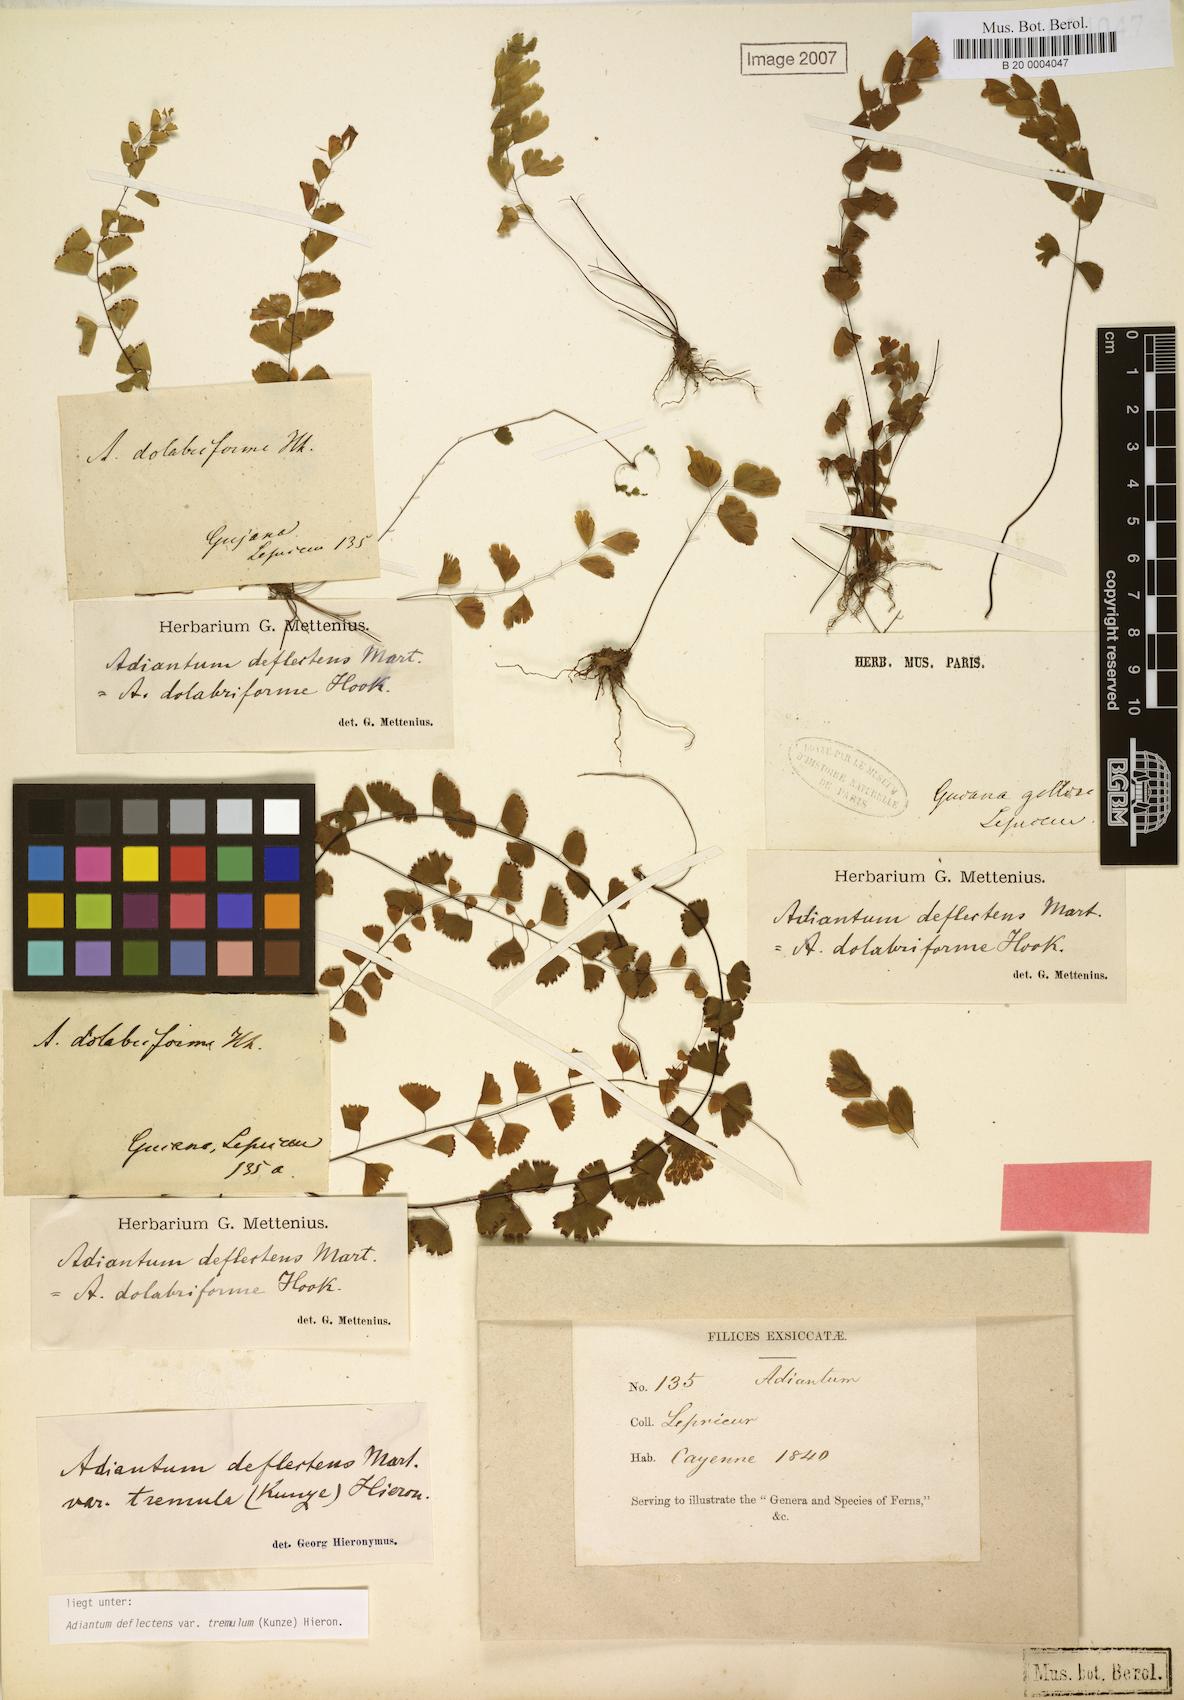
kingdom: Plantae
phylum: Tracheophyta
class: Polypodiopsida
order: Polypodiales
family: Pteridaceae
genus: Adiantum
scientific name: Adiantum deflectens
